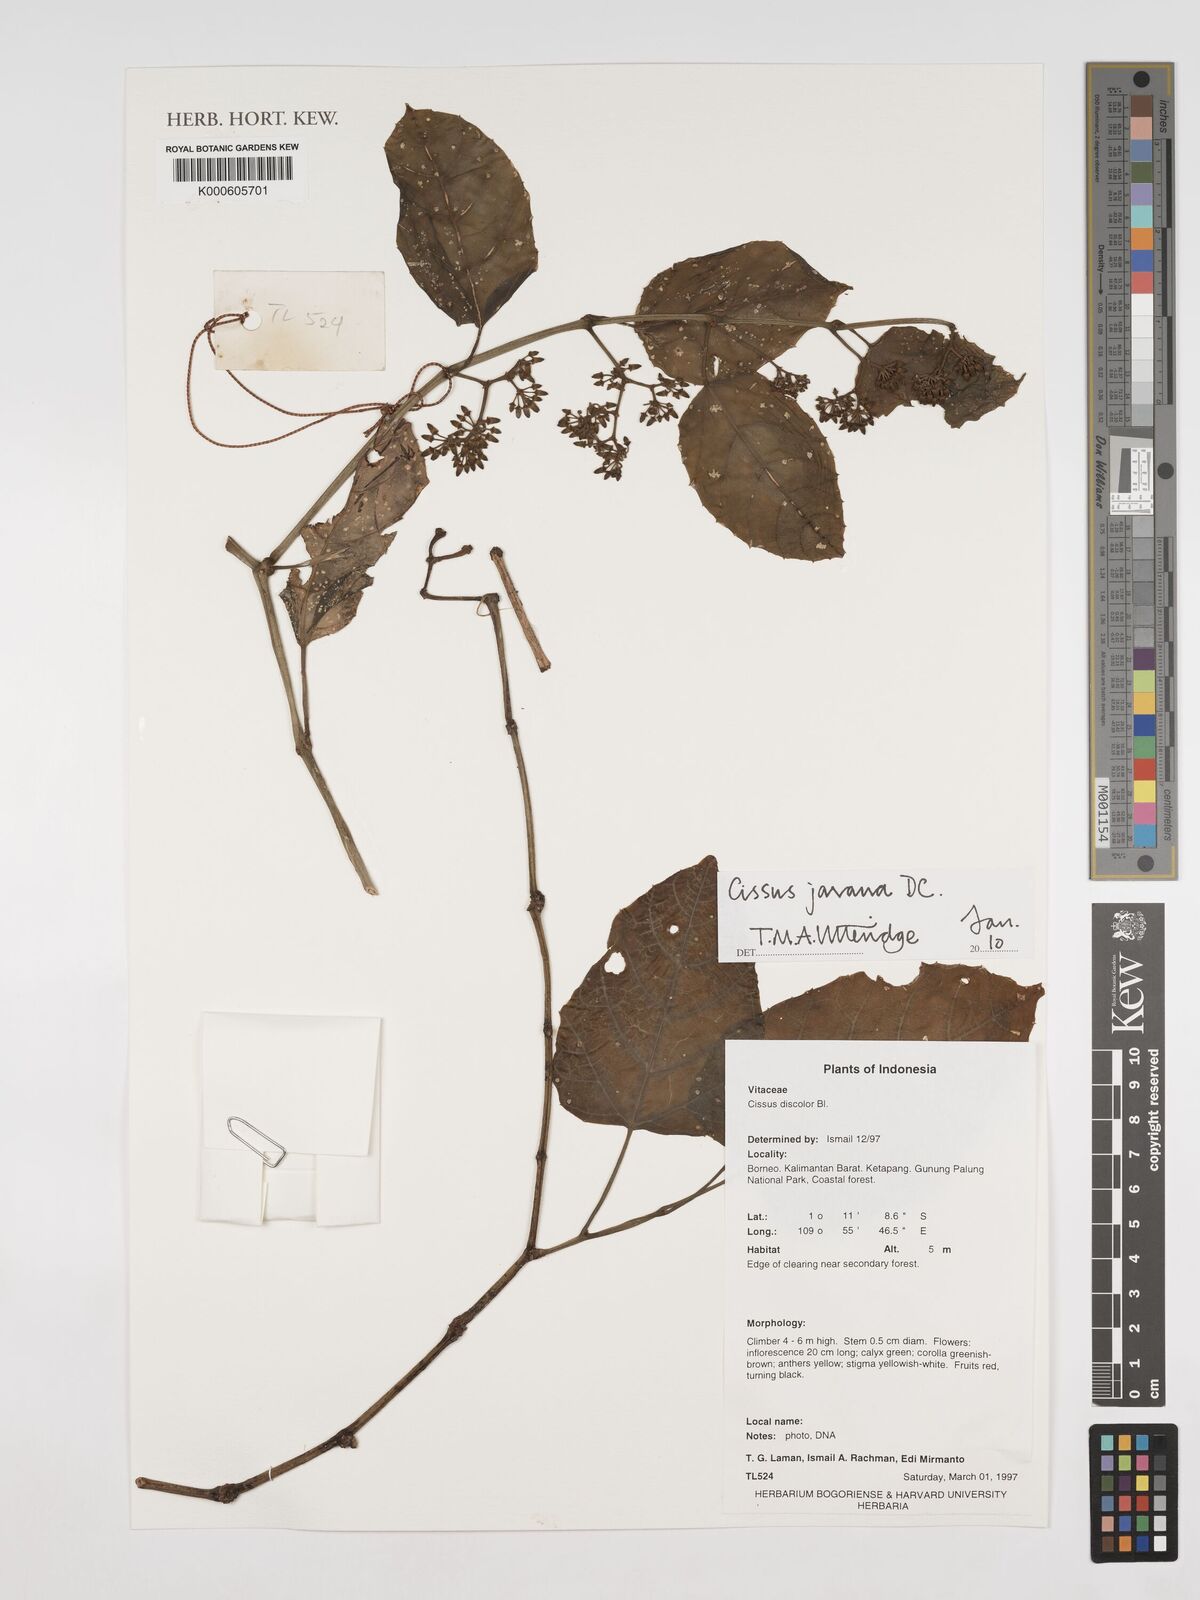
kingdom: Plantae
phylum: Tracheophyta
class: Magnoliopsida
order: Vitales
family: Vitaceae
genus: Cissus
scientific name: Cissus discolor
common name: Climbing-begonia
